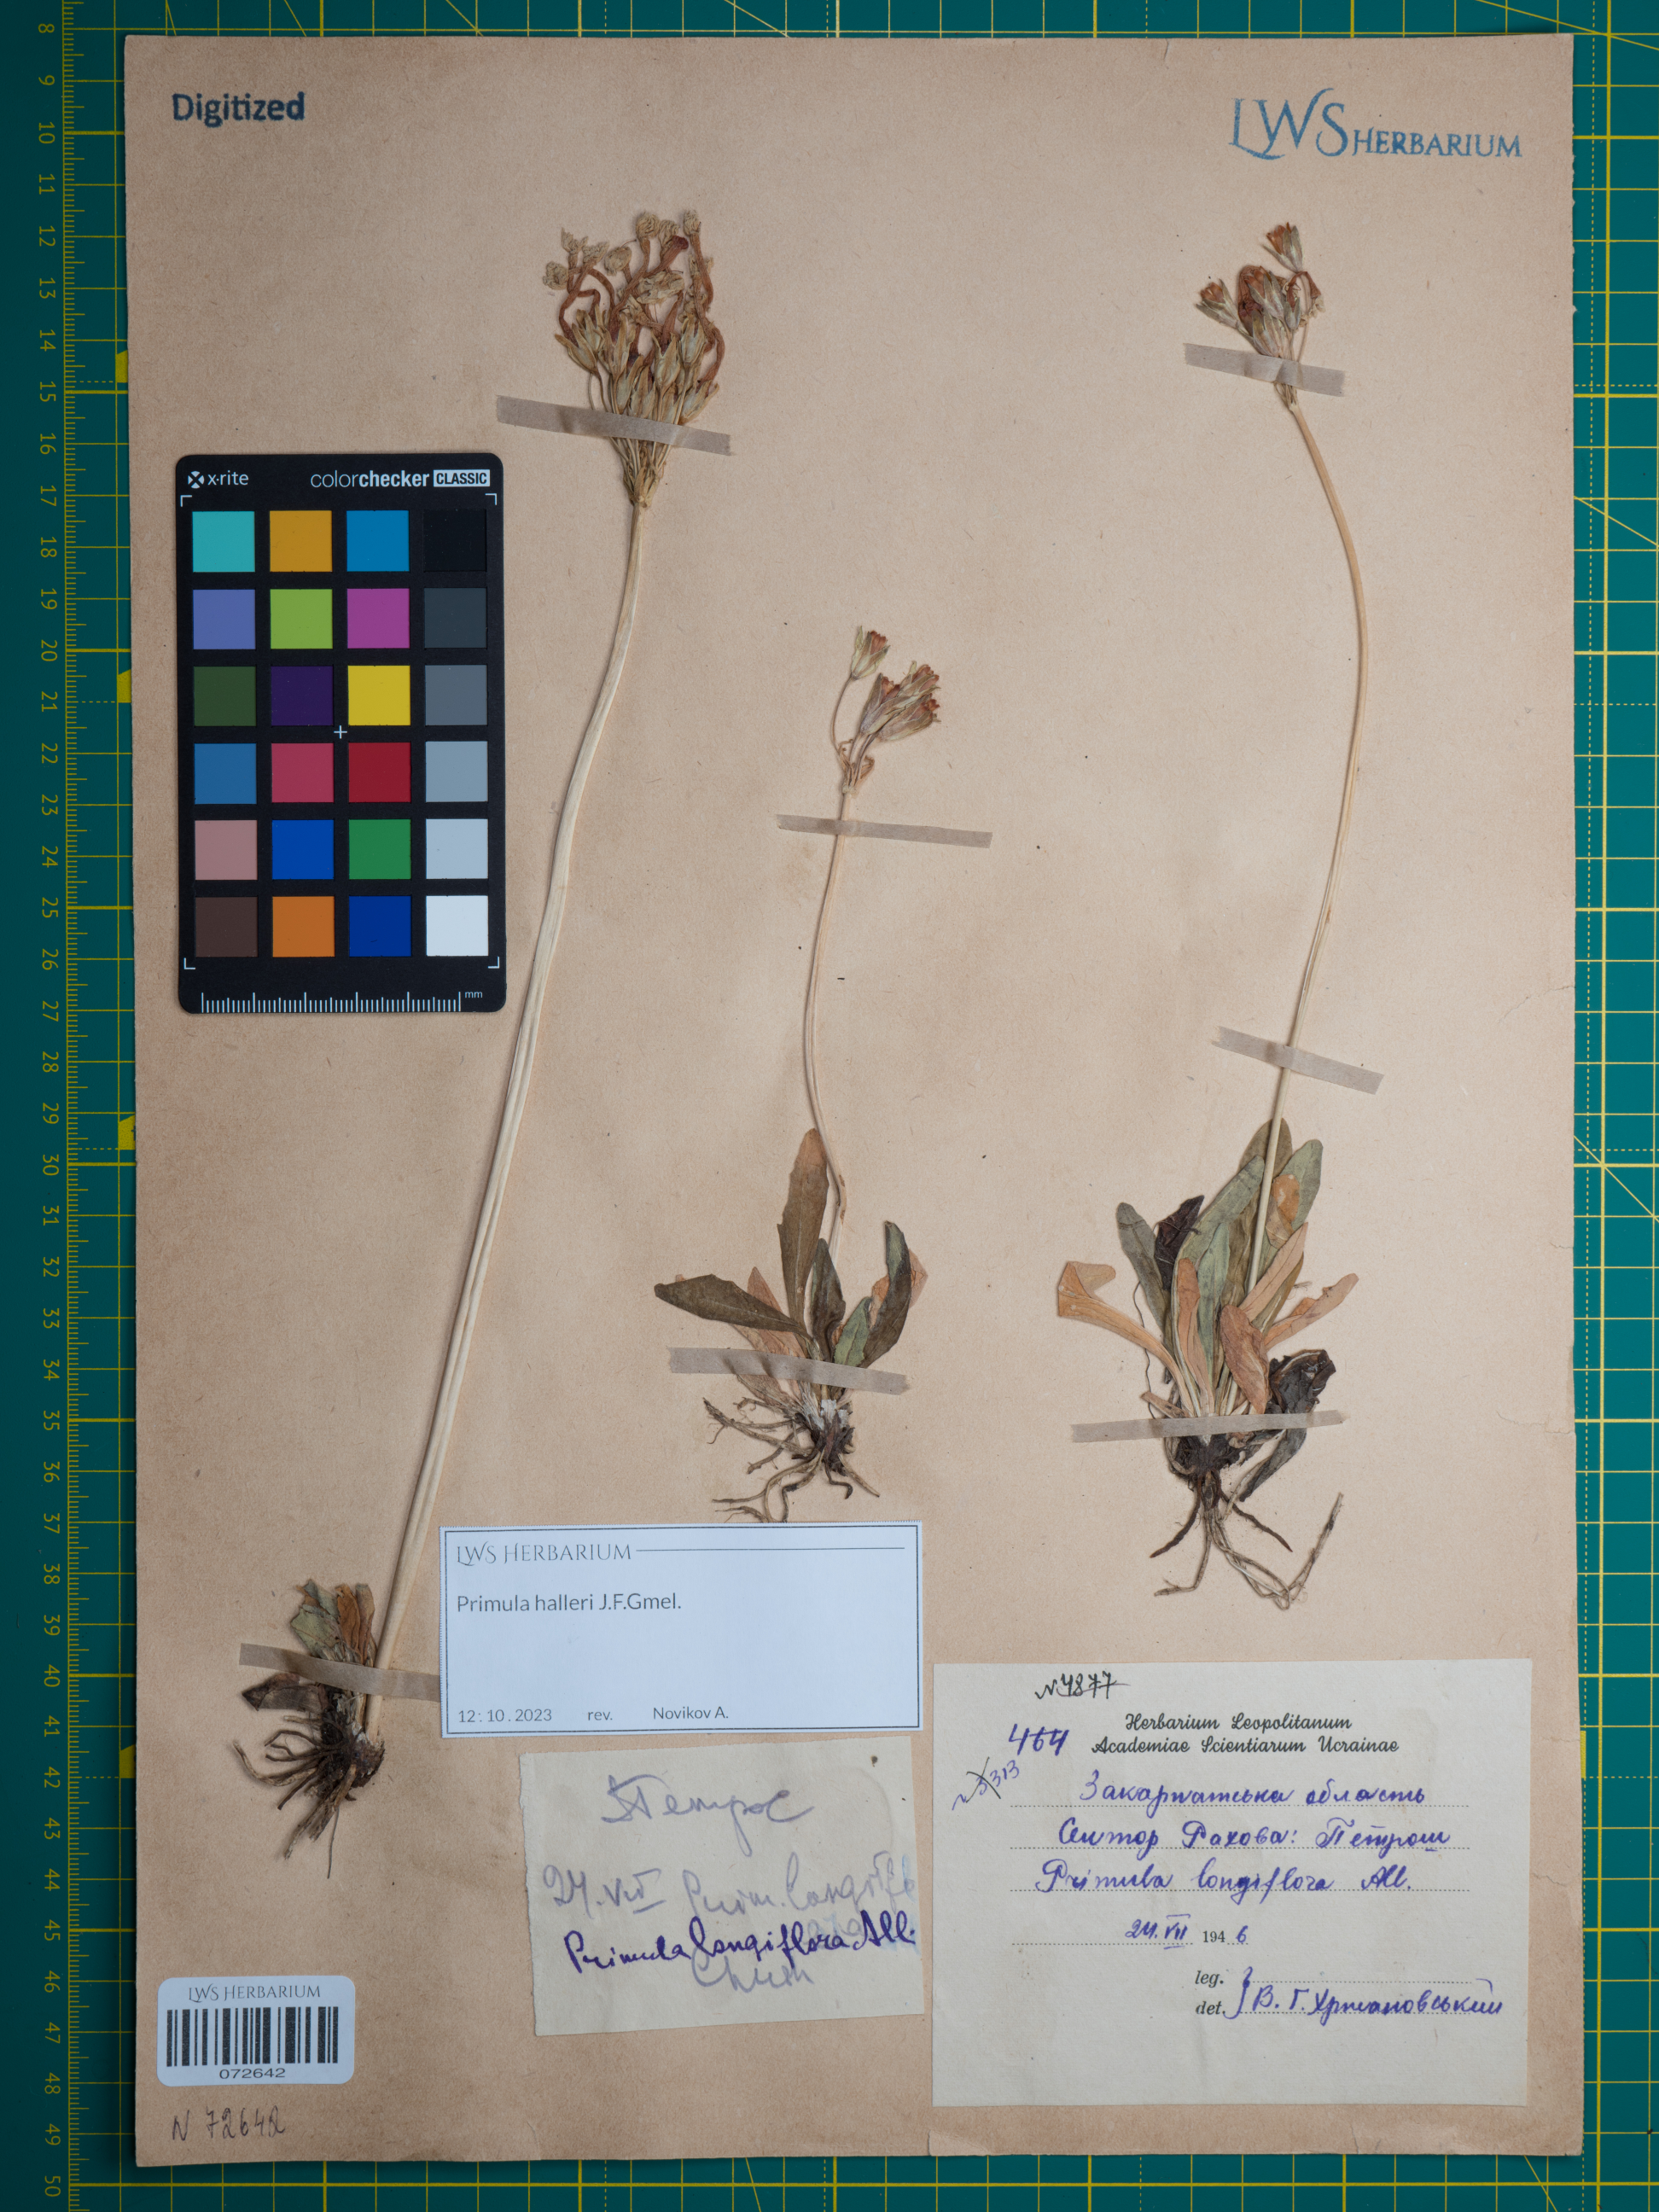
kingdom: Plantae
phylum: Tracheophyta
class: Magnoliopsida
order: Ericales
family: Primulaceae
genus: Primula
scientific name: Primula halleri
